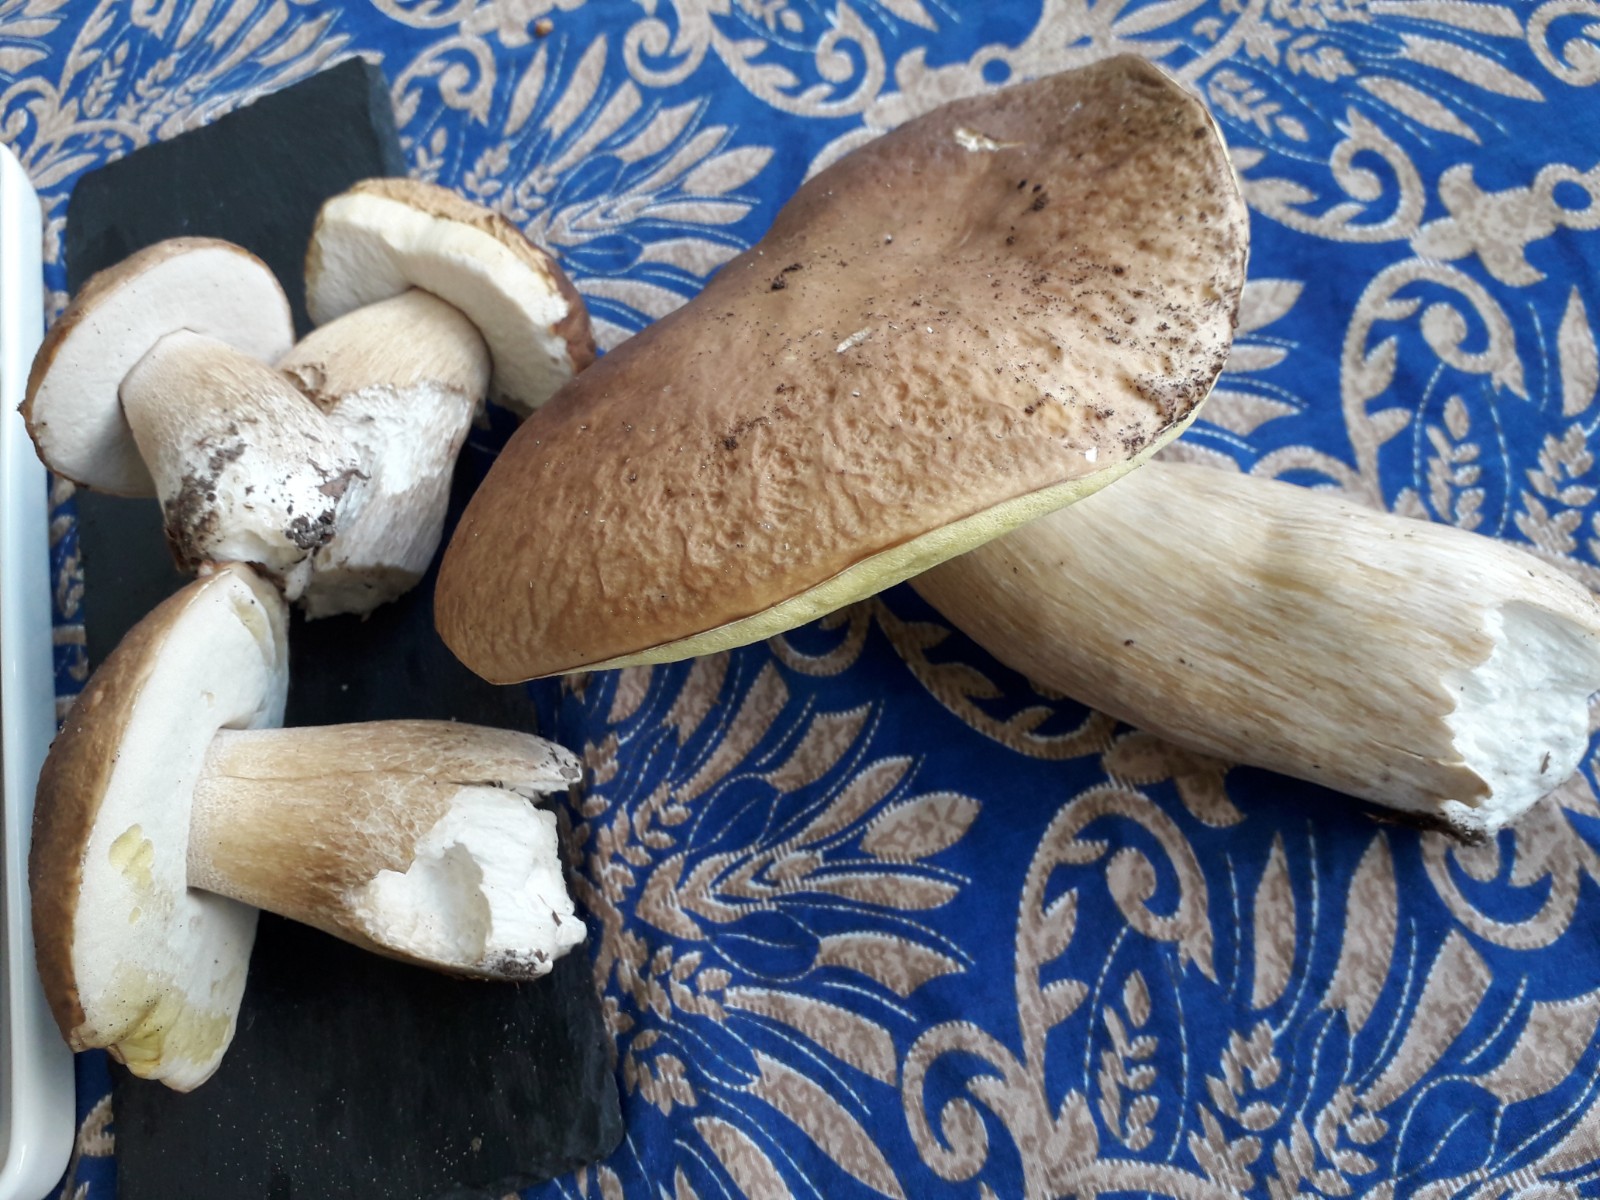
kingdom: Fungi
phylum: Basidiomycota
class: Agaricomycetes
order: Boletales
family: Boletaceae
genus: Boletus
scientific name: Boletus reticulatus
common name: sommer-rørhat
